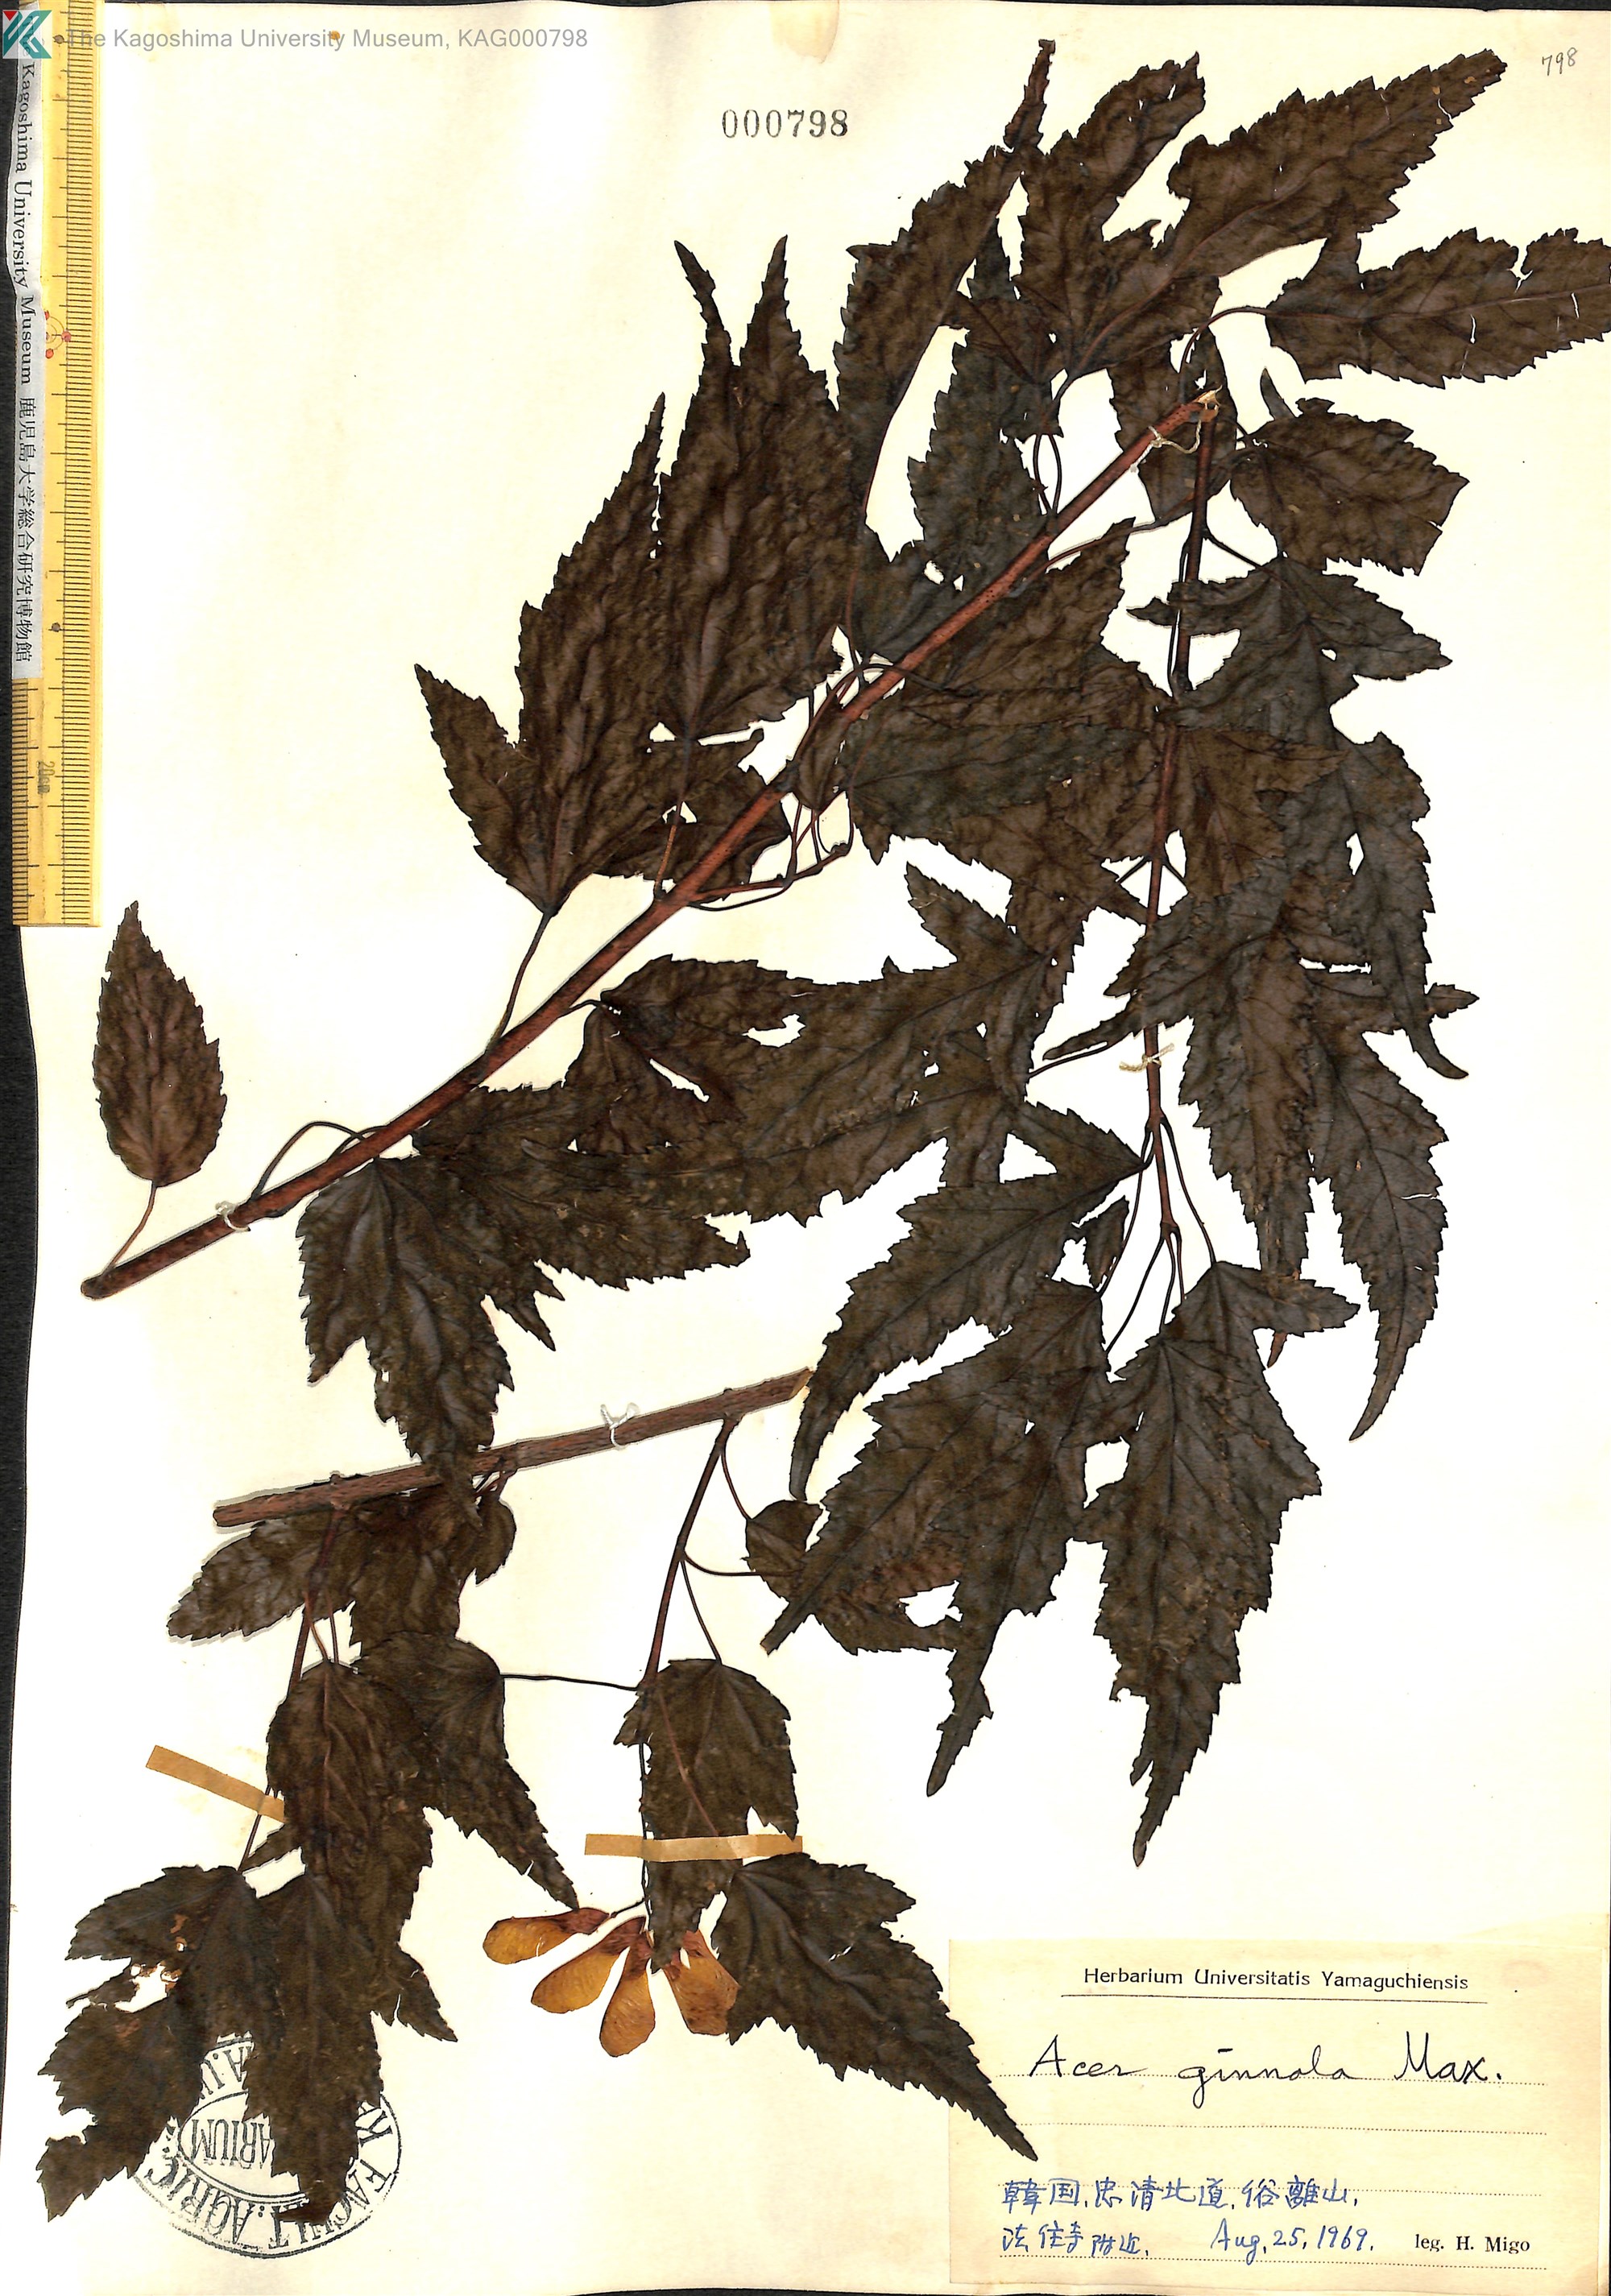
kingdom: Plantae
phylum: Tracheophyta
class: Magnoliopsida
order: Sapindales
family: Sapindaceae
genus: Acer
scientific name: Acer tataricum
